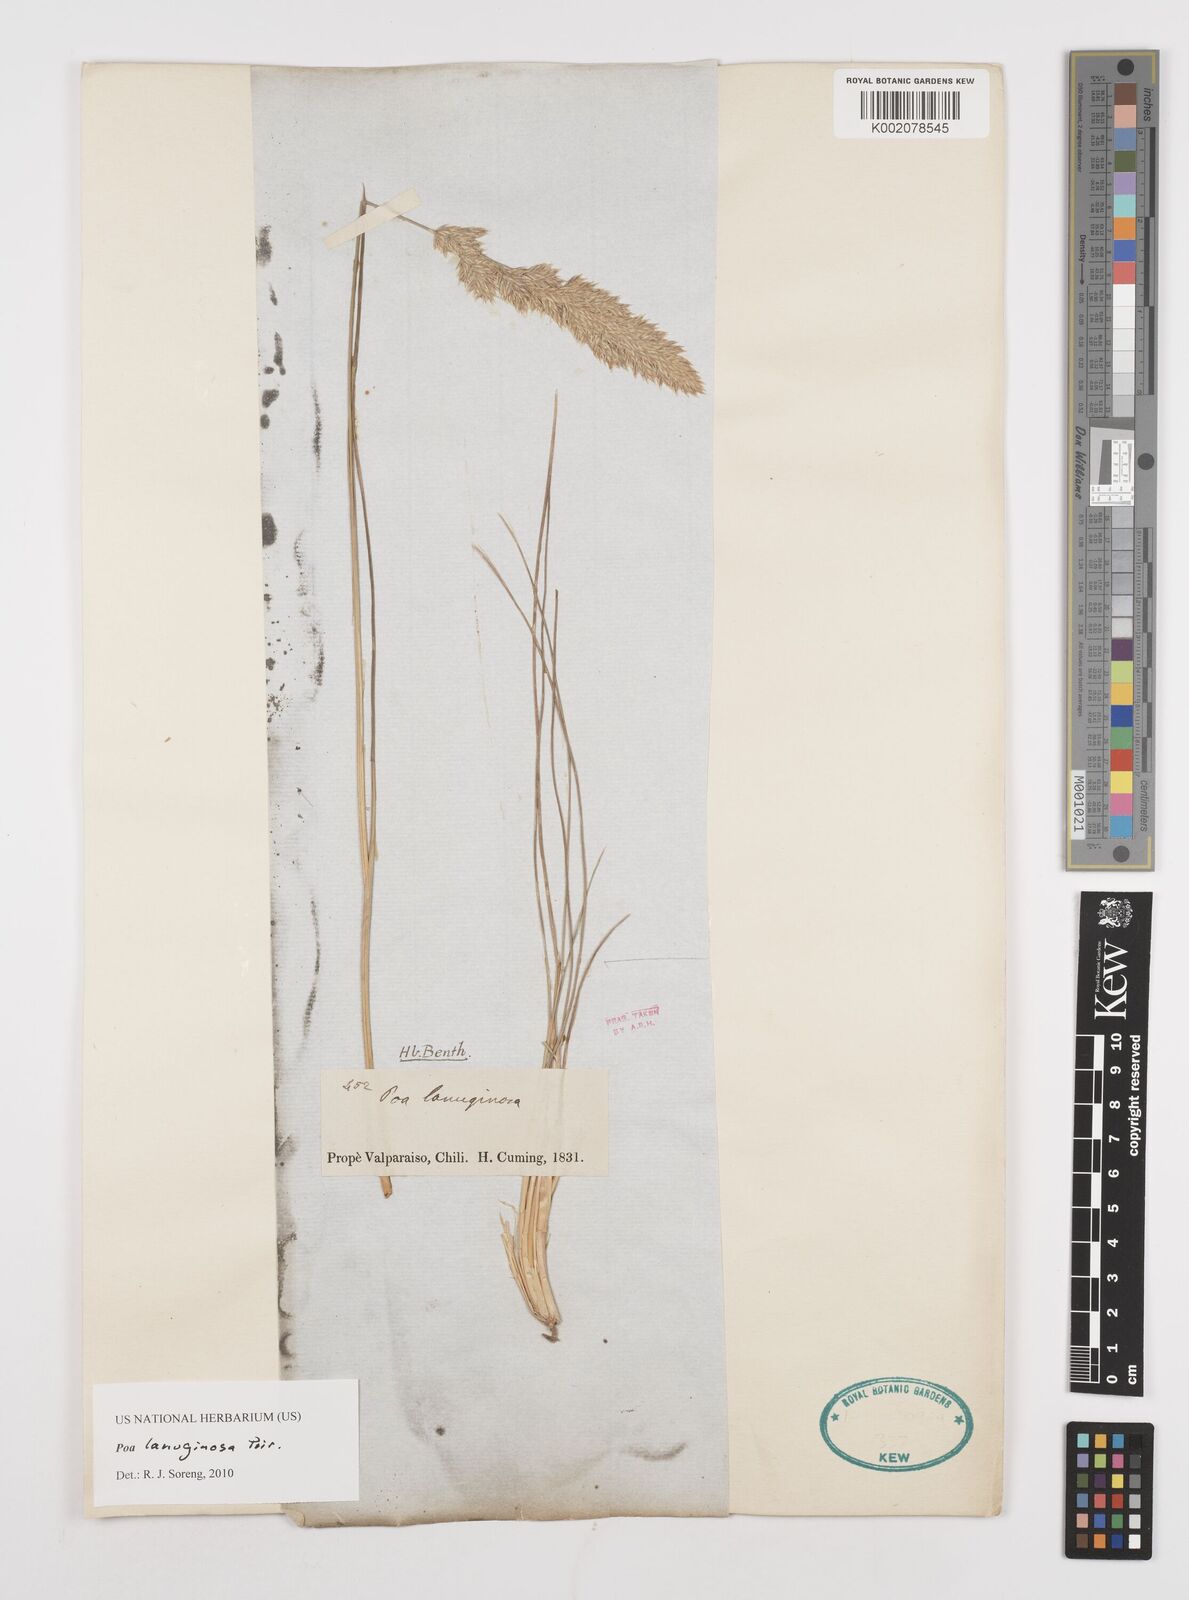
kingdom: Plantae
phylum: Tracheophyta
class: Liliopsida
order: Poales
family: Poaceae
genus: Poa
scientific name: Poa lanuginosa
